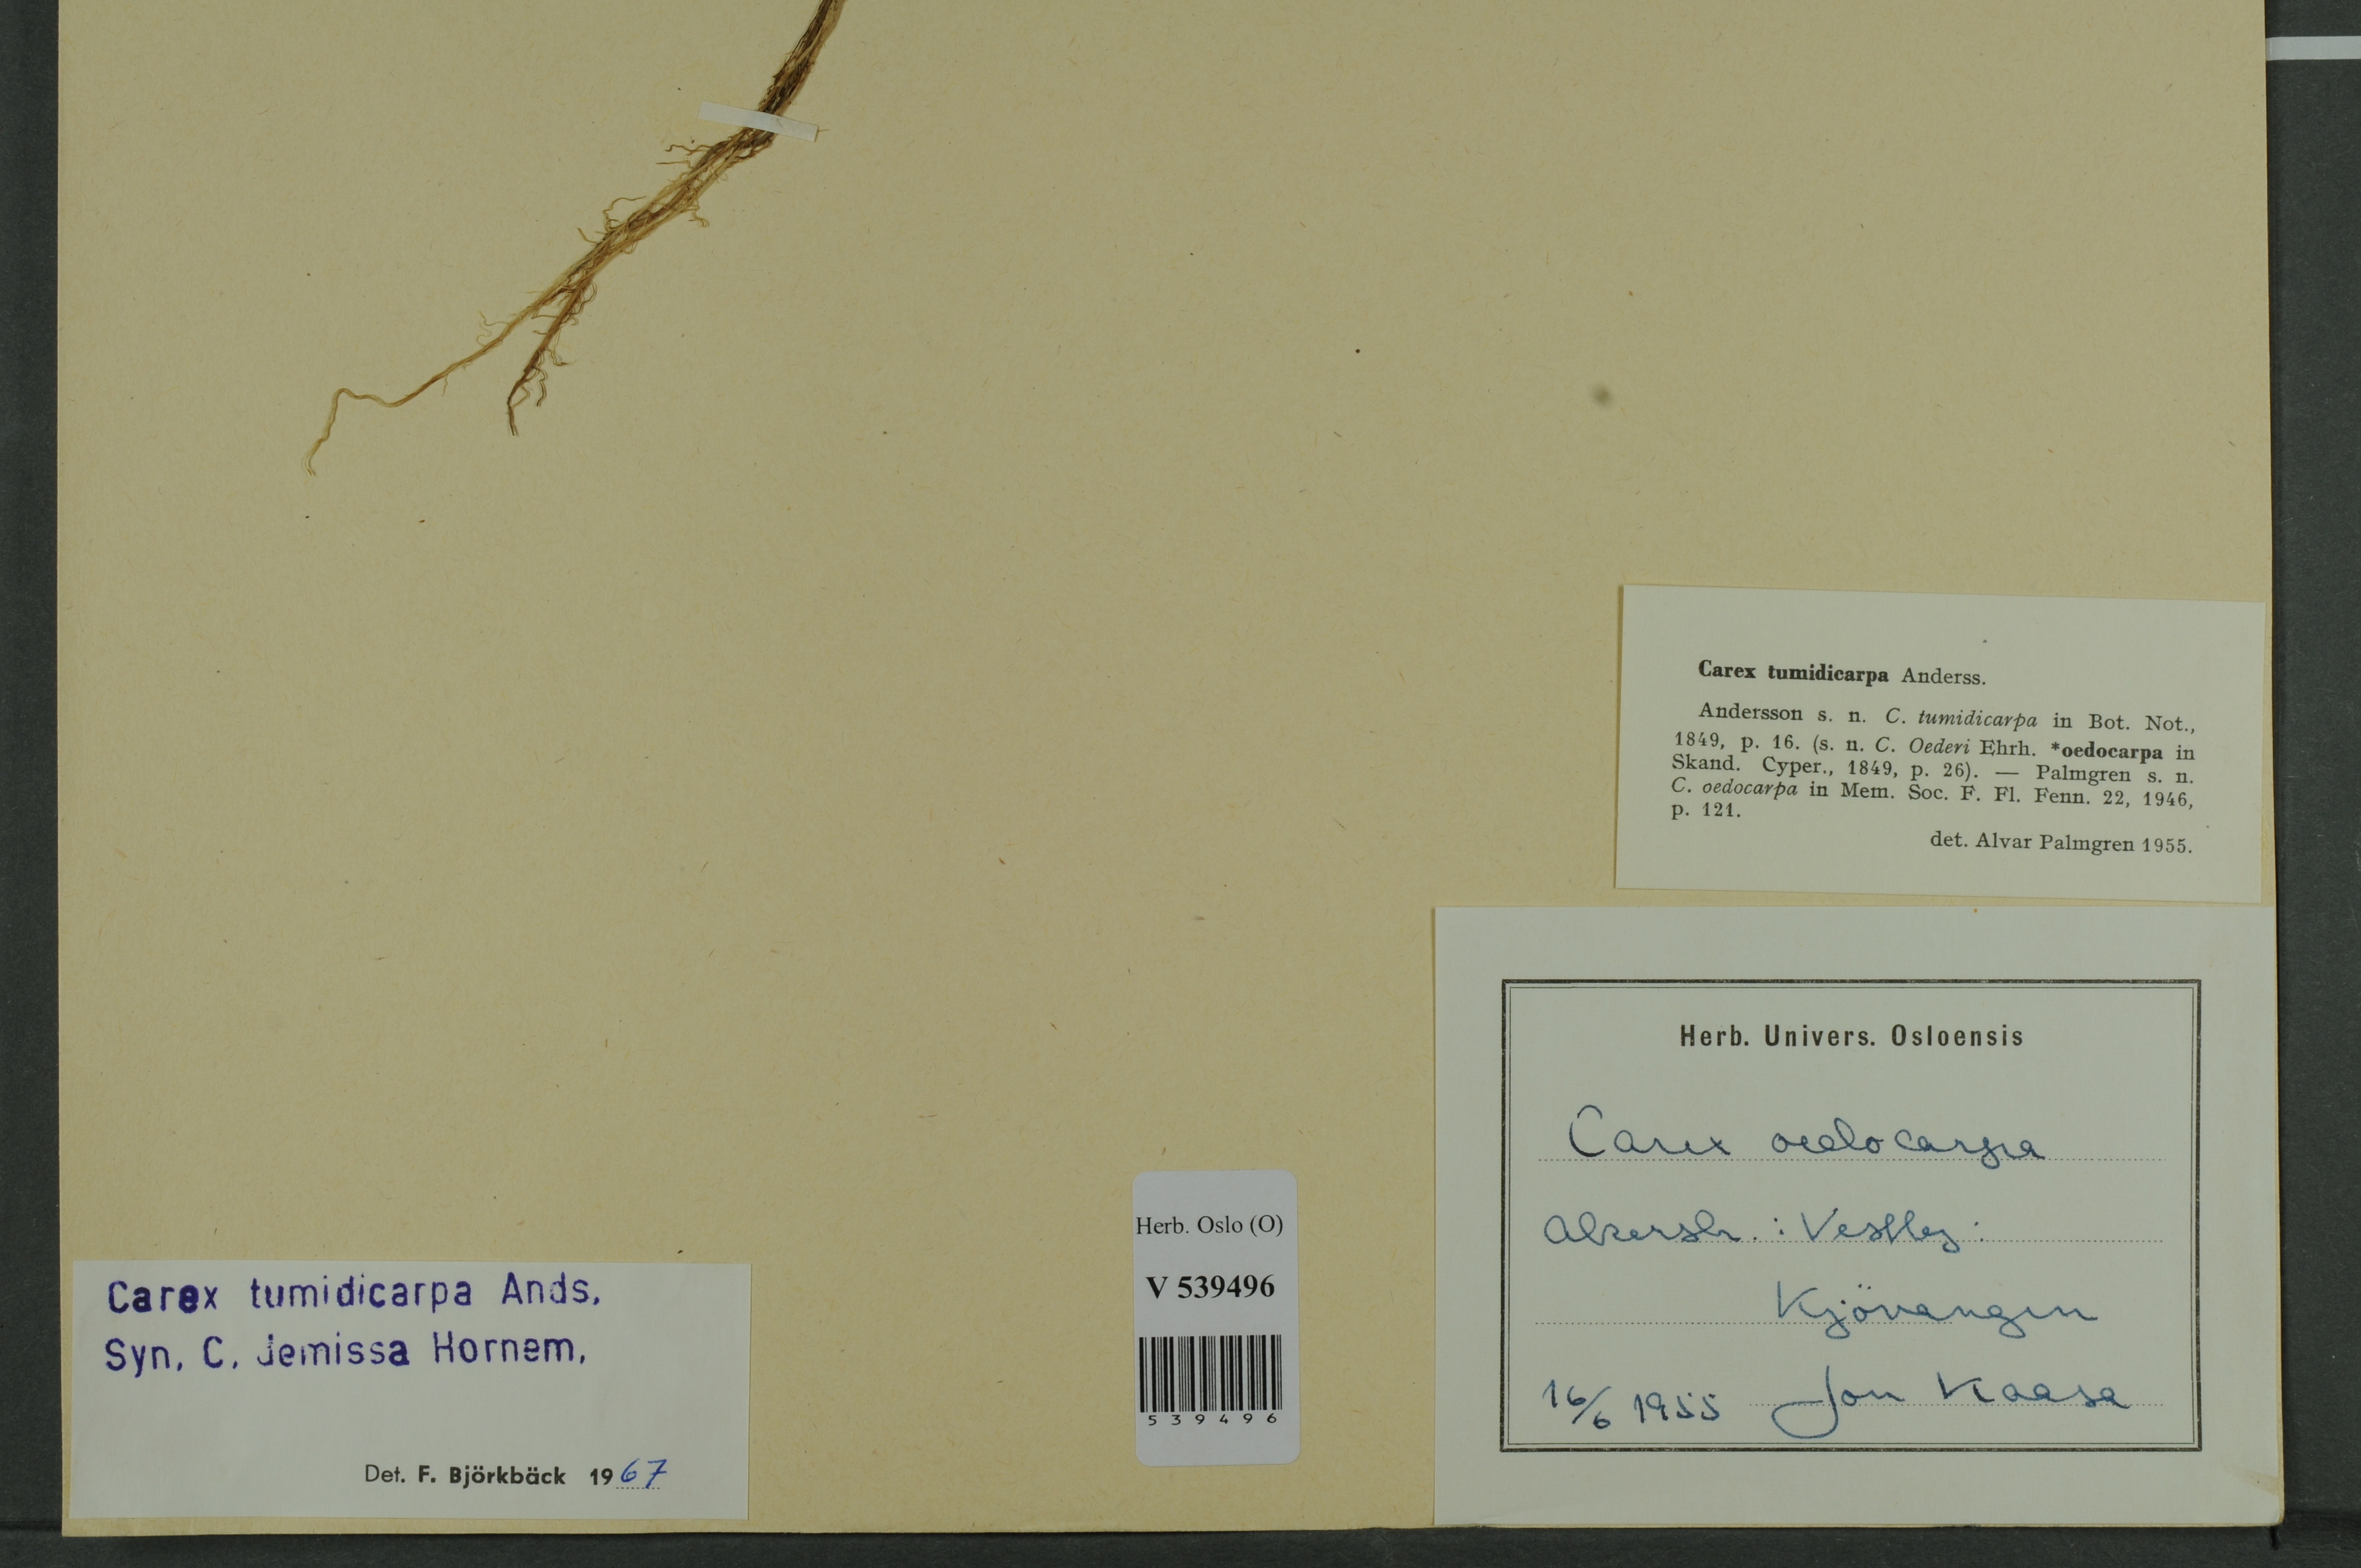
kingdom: Plantae
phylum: Tracheophyta
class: Liliopsida
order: Poales
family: Cyperaceae
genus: Carex
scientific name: Carex demissa
